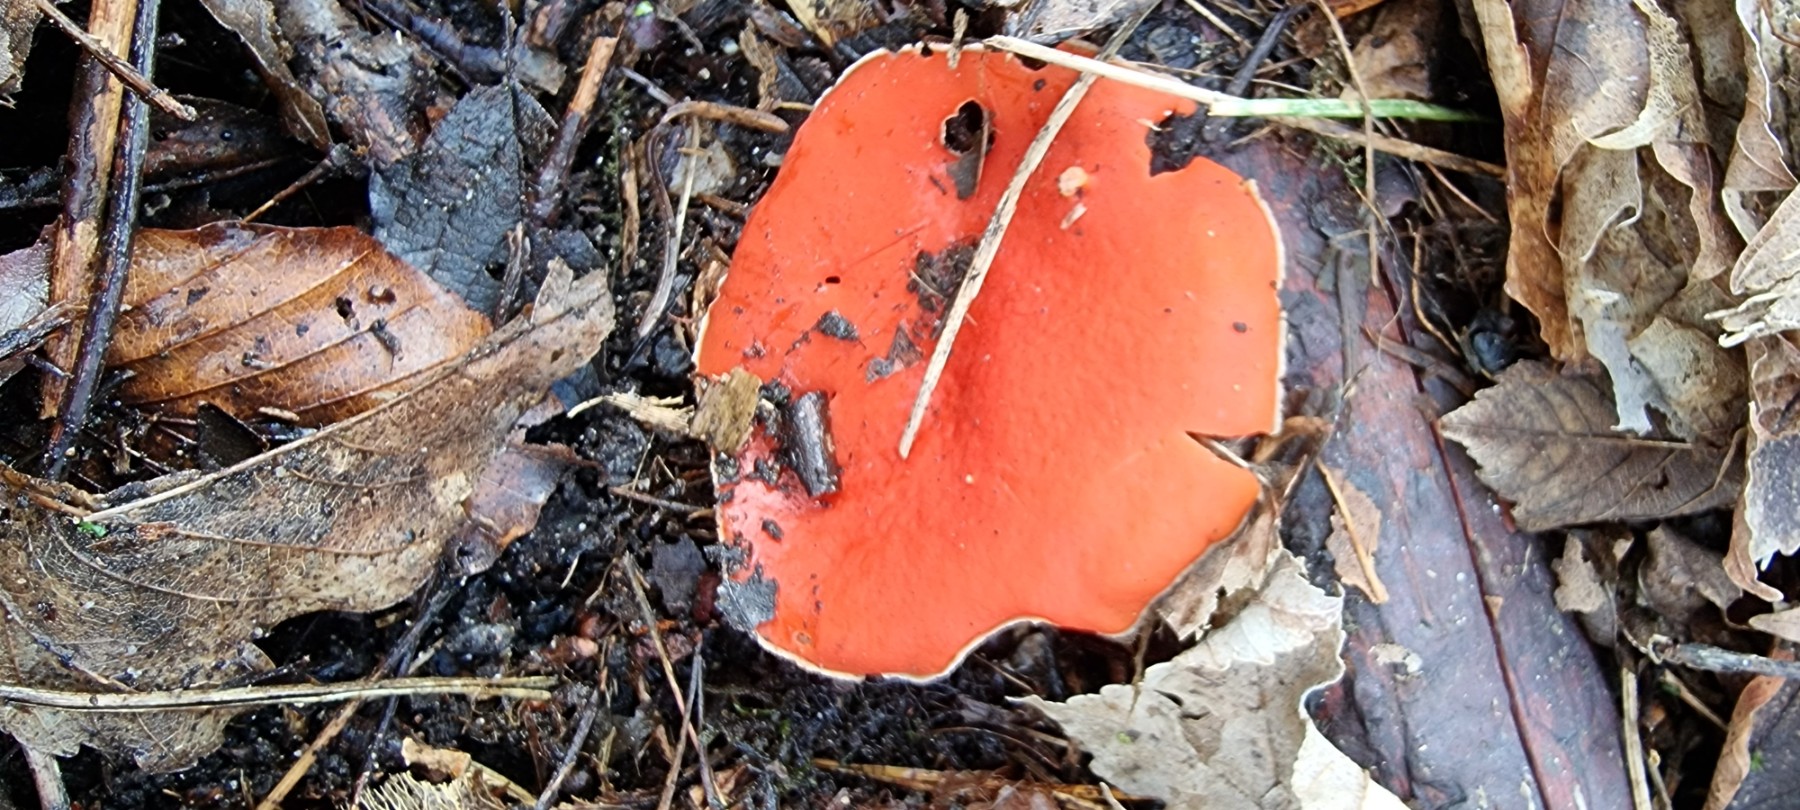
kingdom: Fungi
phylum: Ascomycota
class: Pezizomycetes
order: Pezizales
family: Sarcoscyphaceae
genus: Sarcoscypha
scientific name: Sarcoscypha
